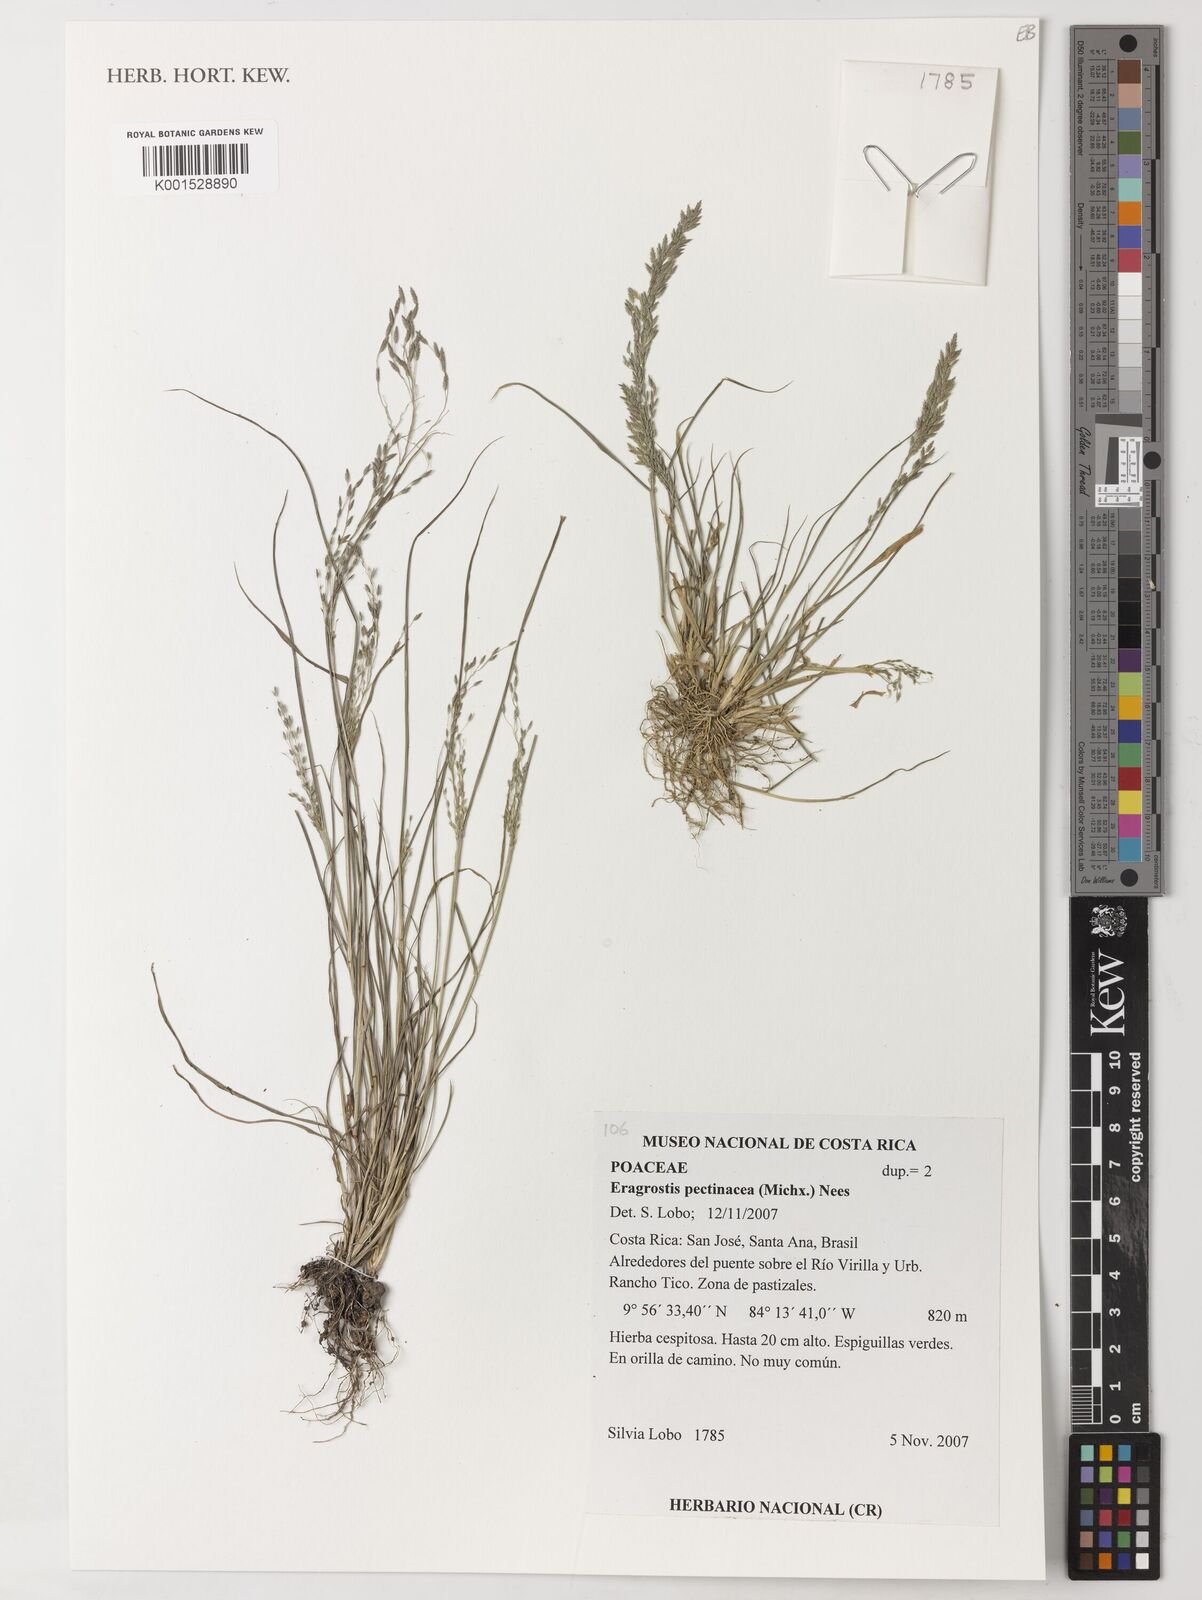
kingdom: Plantae
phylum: Tracheophyta
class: Liliopsida
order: Poales
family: Poaceae
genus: Eragrostis
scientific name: Eragrostis pectinacea
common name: Tufted lovegrass
